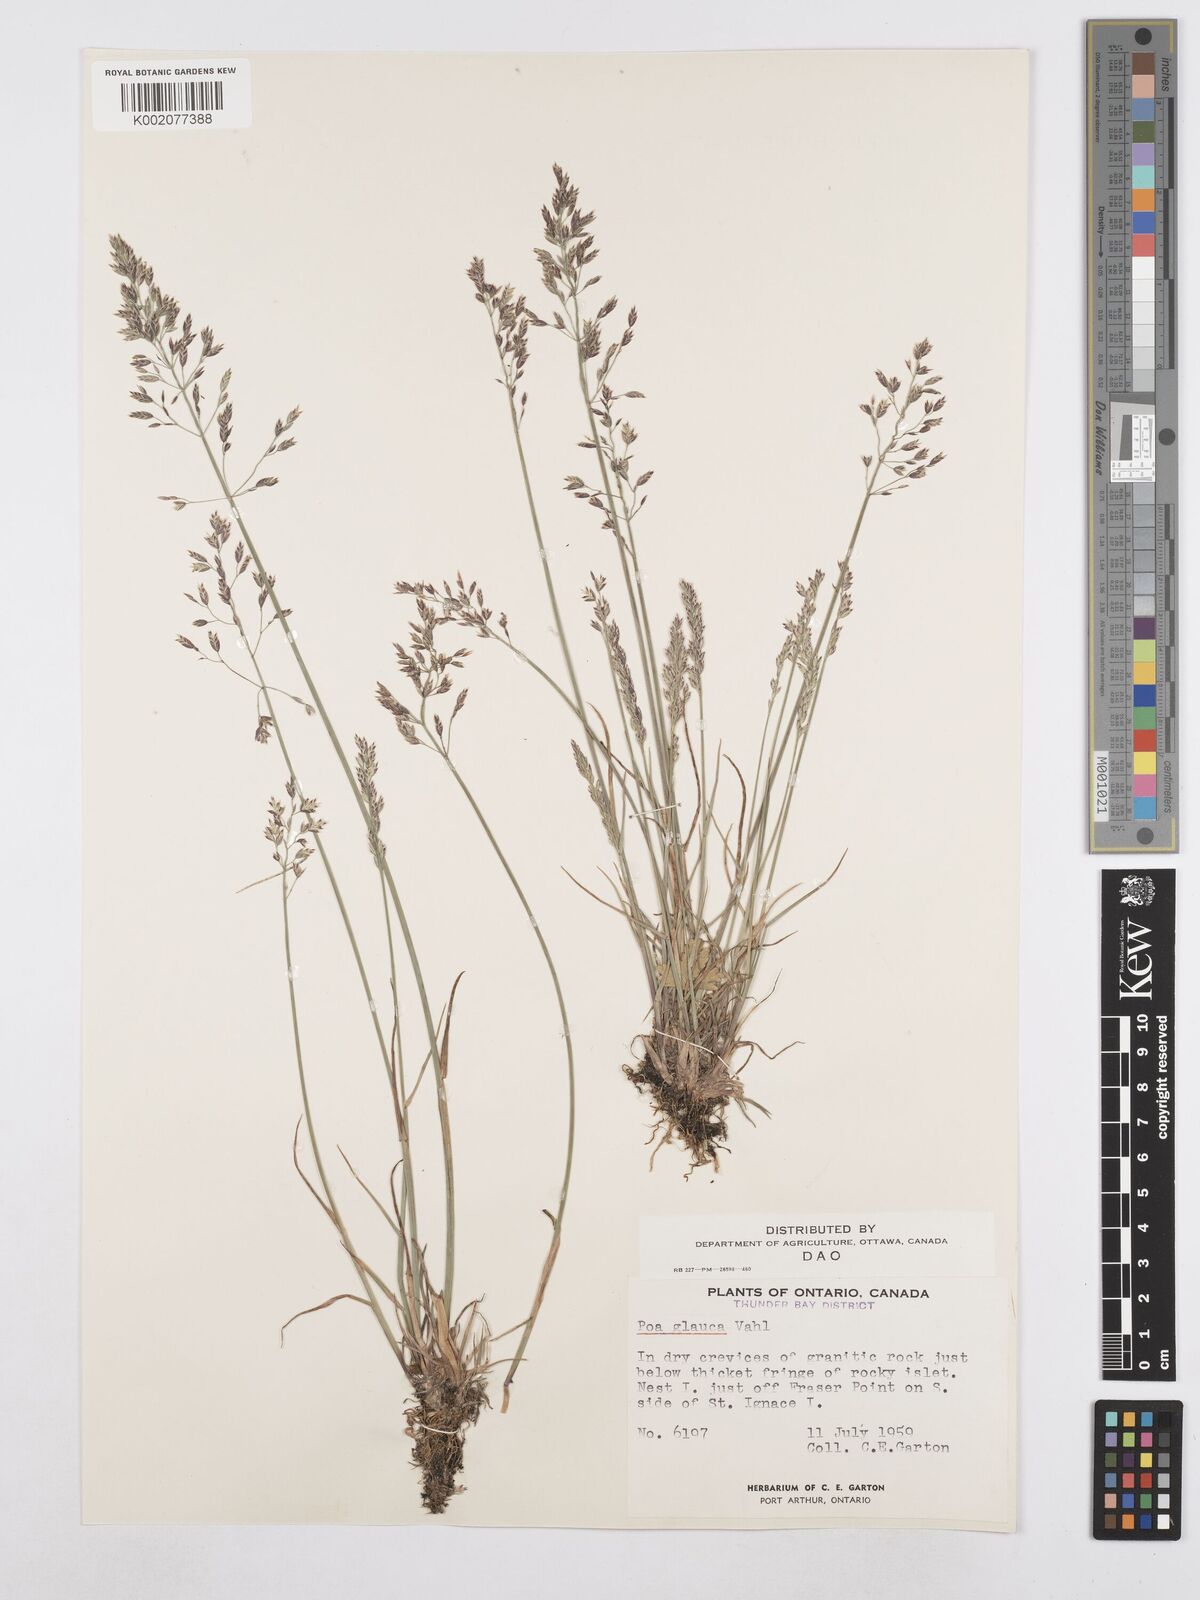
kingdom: Plantae
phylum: Tracheophyta
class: Liliopsida
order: Poales
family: Poaceae
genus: Poa
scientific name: Poa glauca
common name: Glaucous bluegrass
